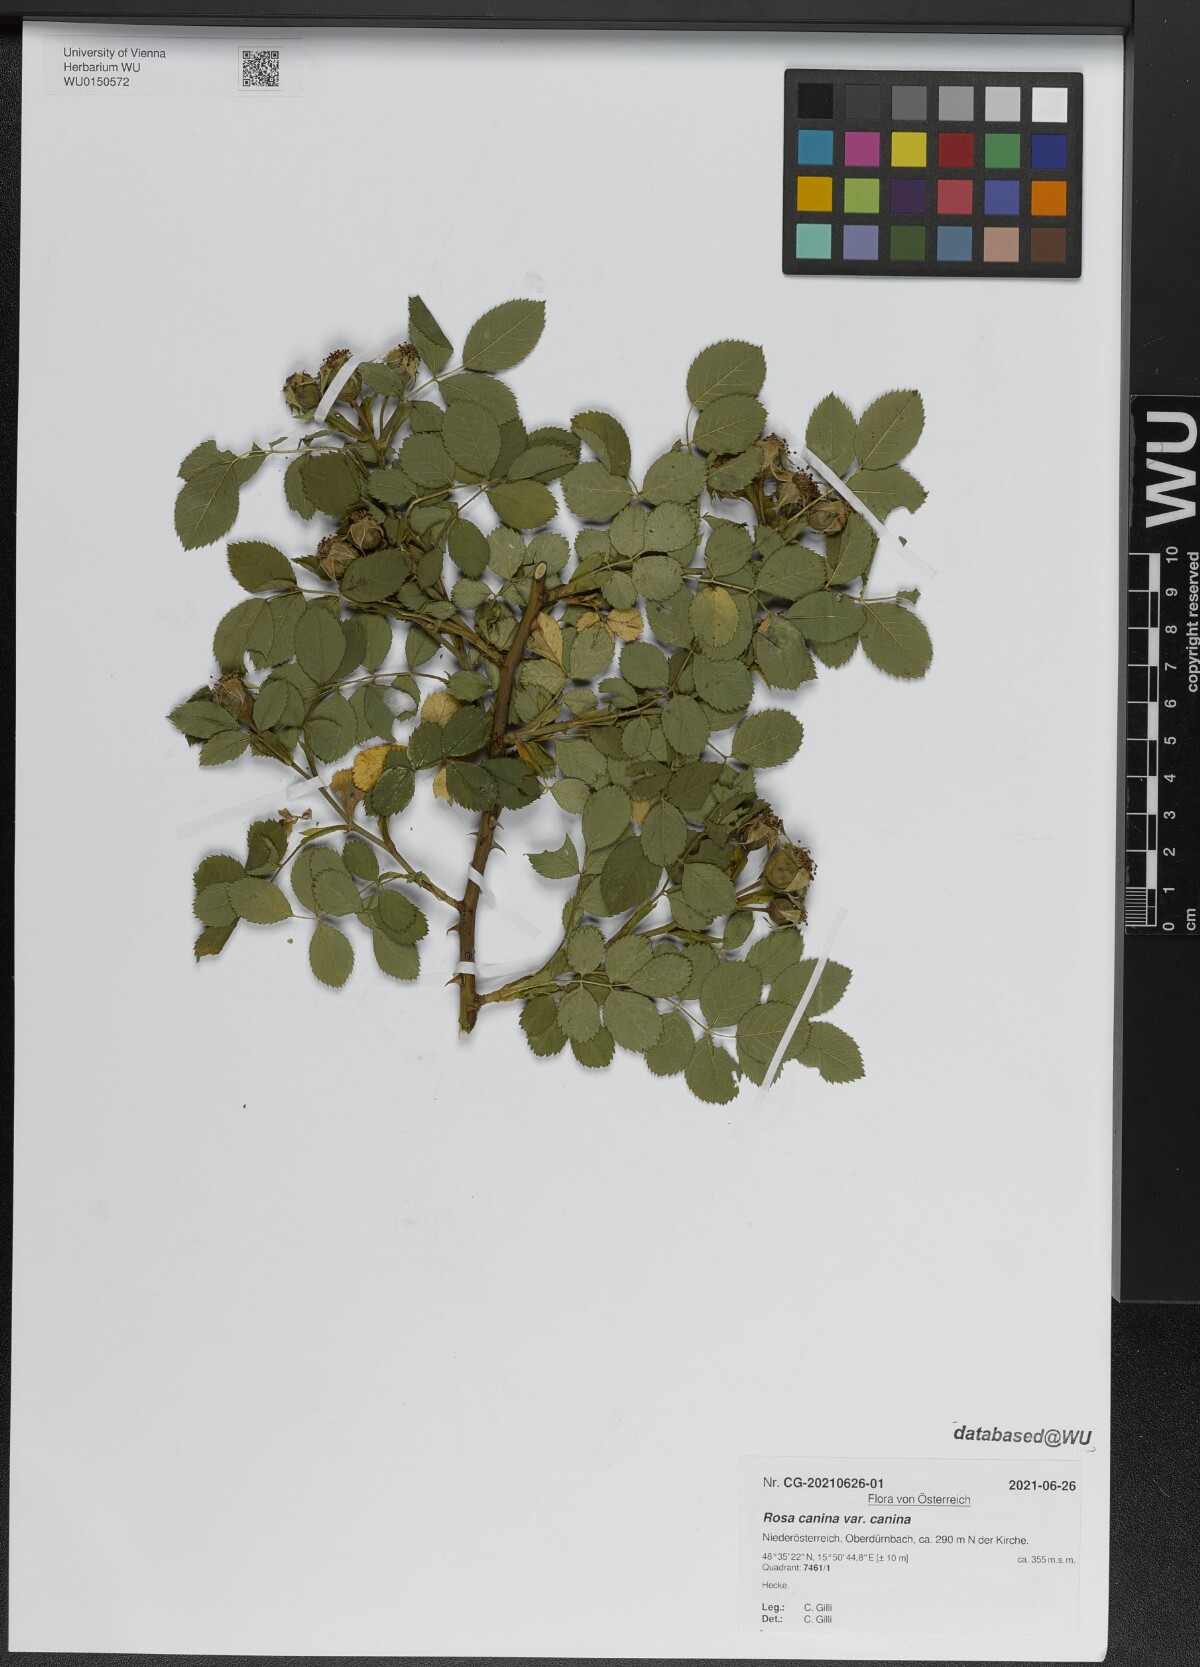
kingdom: Plantae
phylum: Tracheophyta
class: Magnoliopsida
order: Rosales
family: Rosaceae
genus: Rosa
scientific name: Rosa canina
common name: Dog rose
